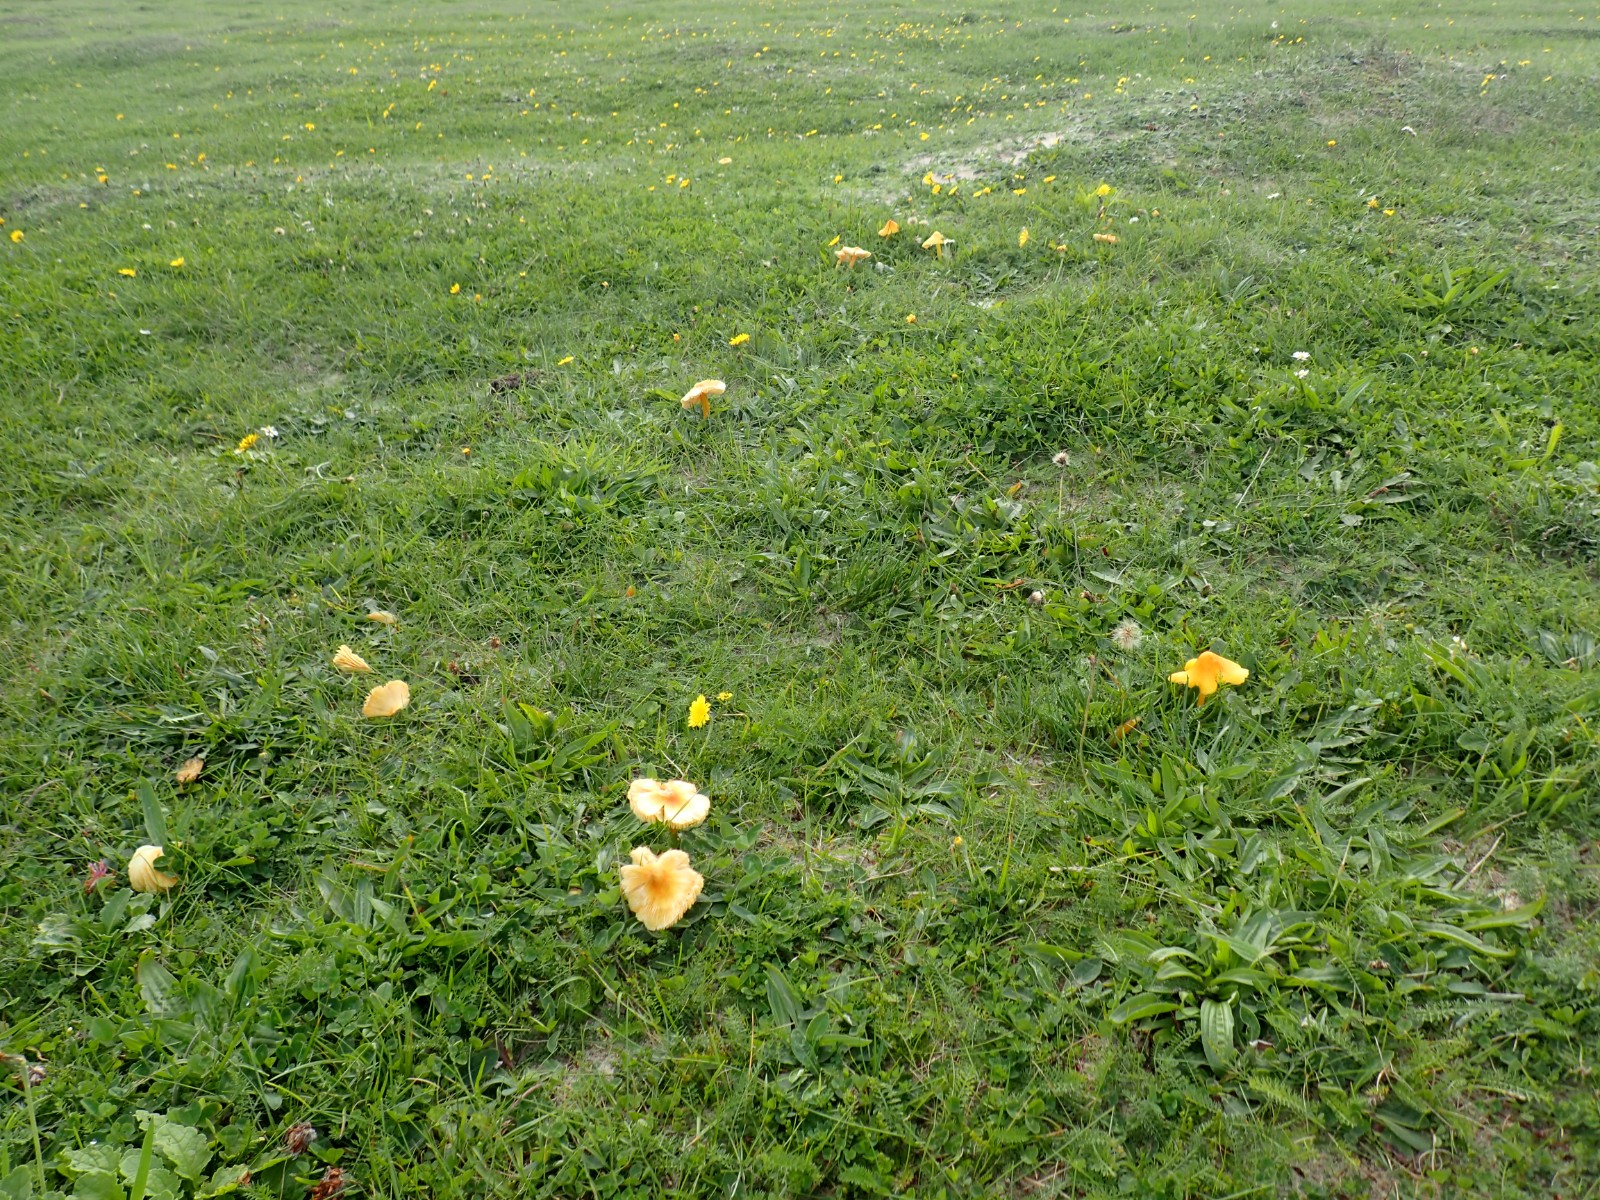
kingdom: Fungi
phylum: Basidiomycota
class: Agaricomycetes
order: Agaricales
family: Hygrophoraceae
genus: Hygrocybe
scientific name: Hygrocybe acutoconica
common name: spidspuklet vokshat
